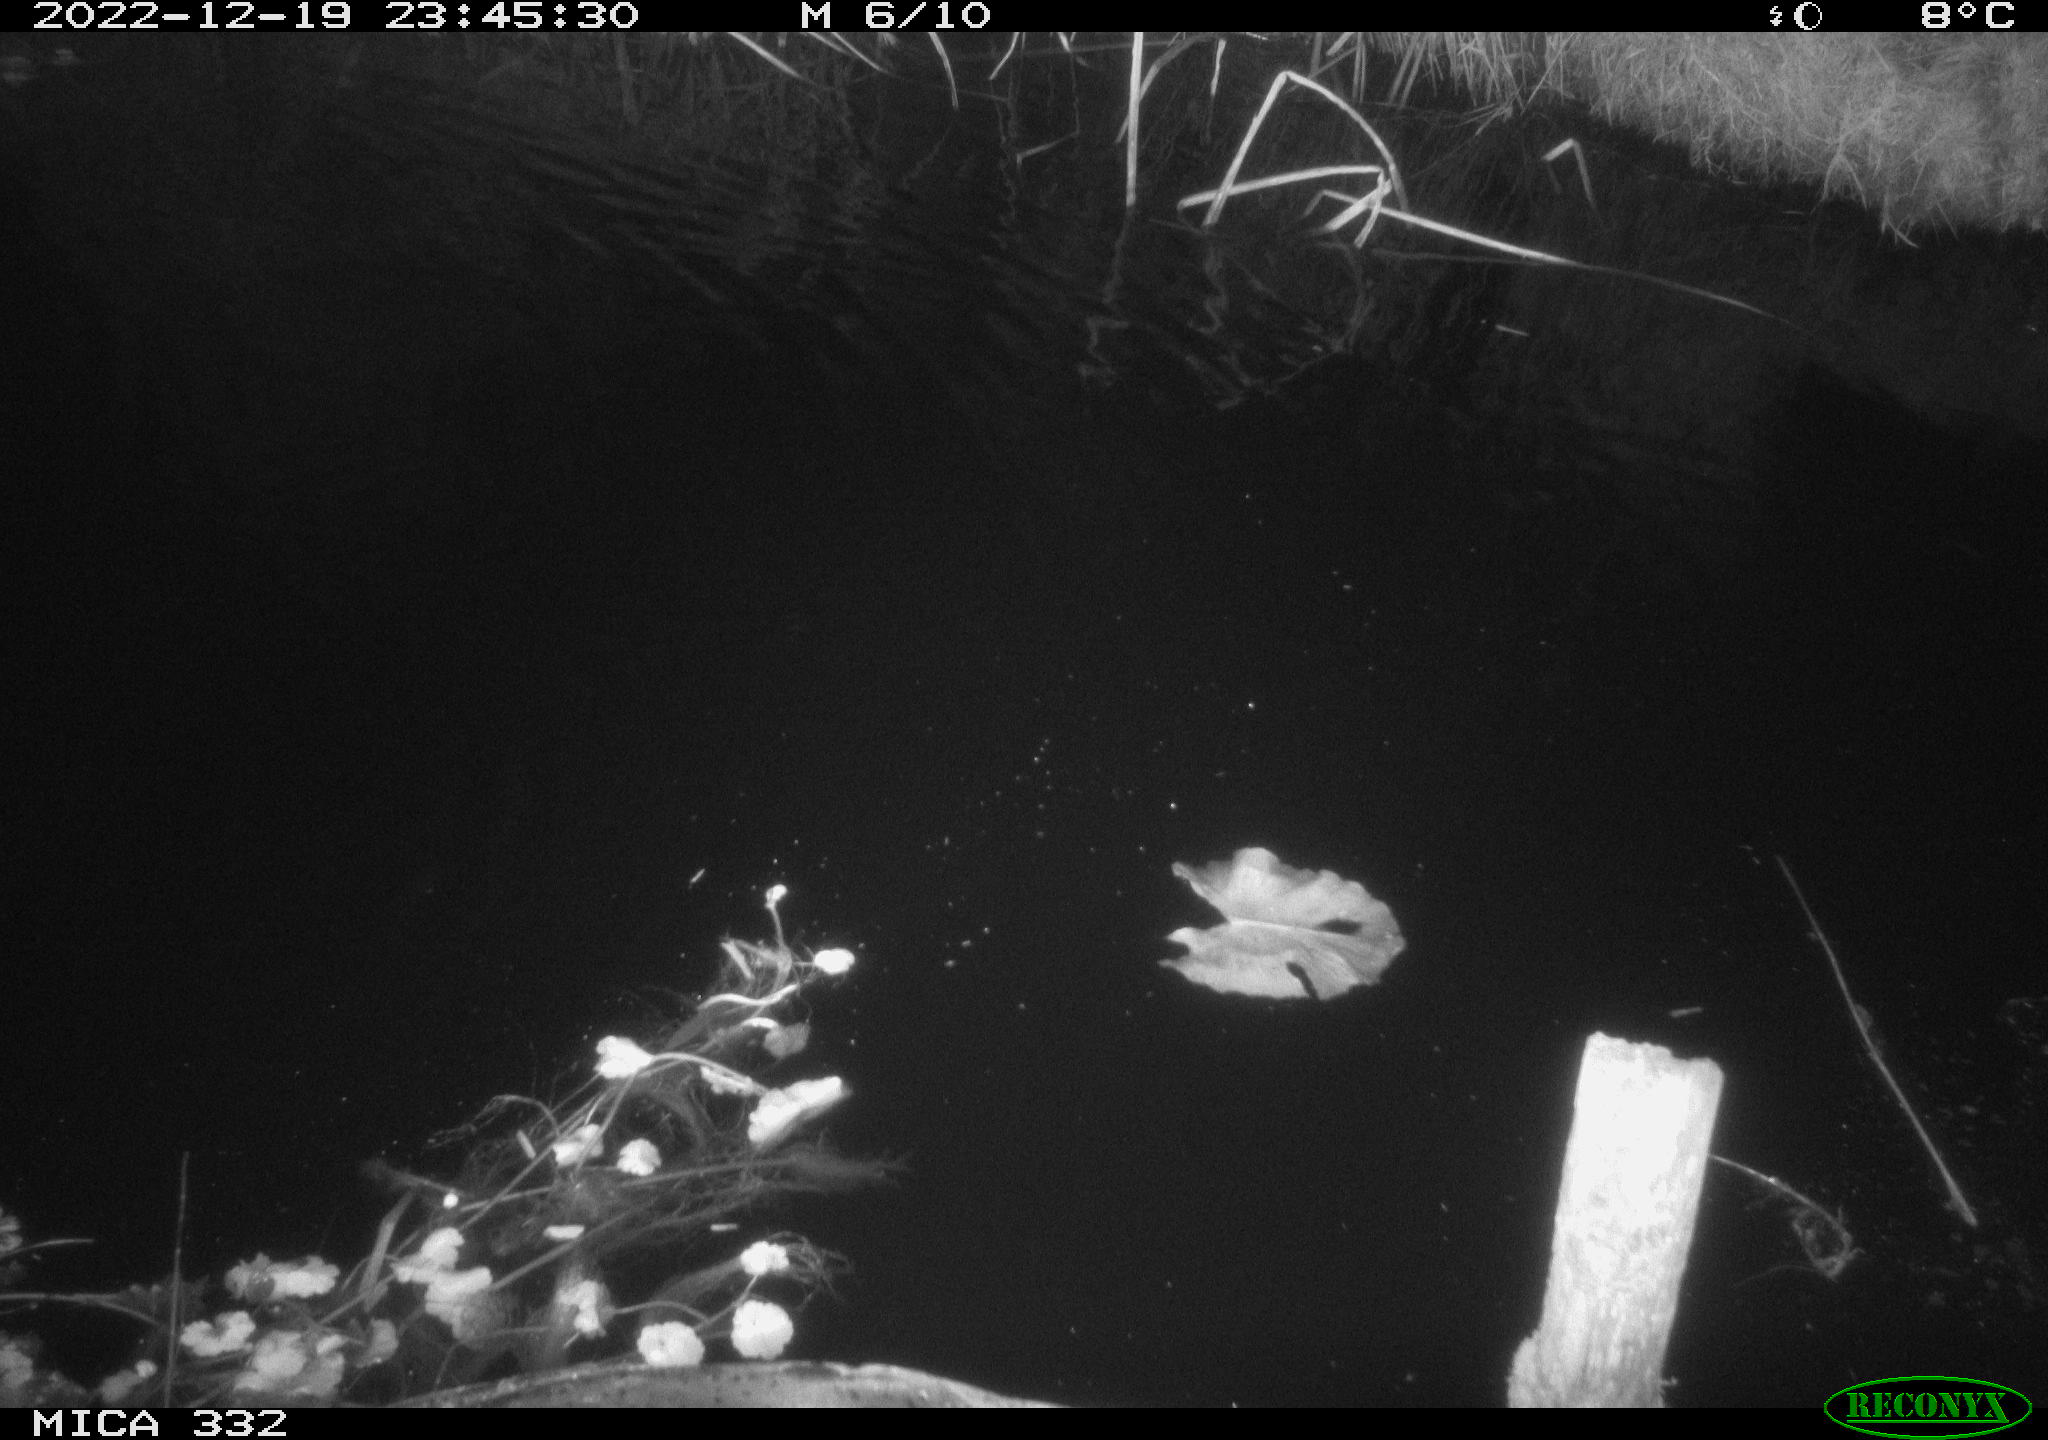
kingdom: Animalia
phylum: Chordata
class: Aves
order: Anseriformes
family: Anatidae
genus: Anas
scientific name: Anas
